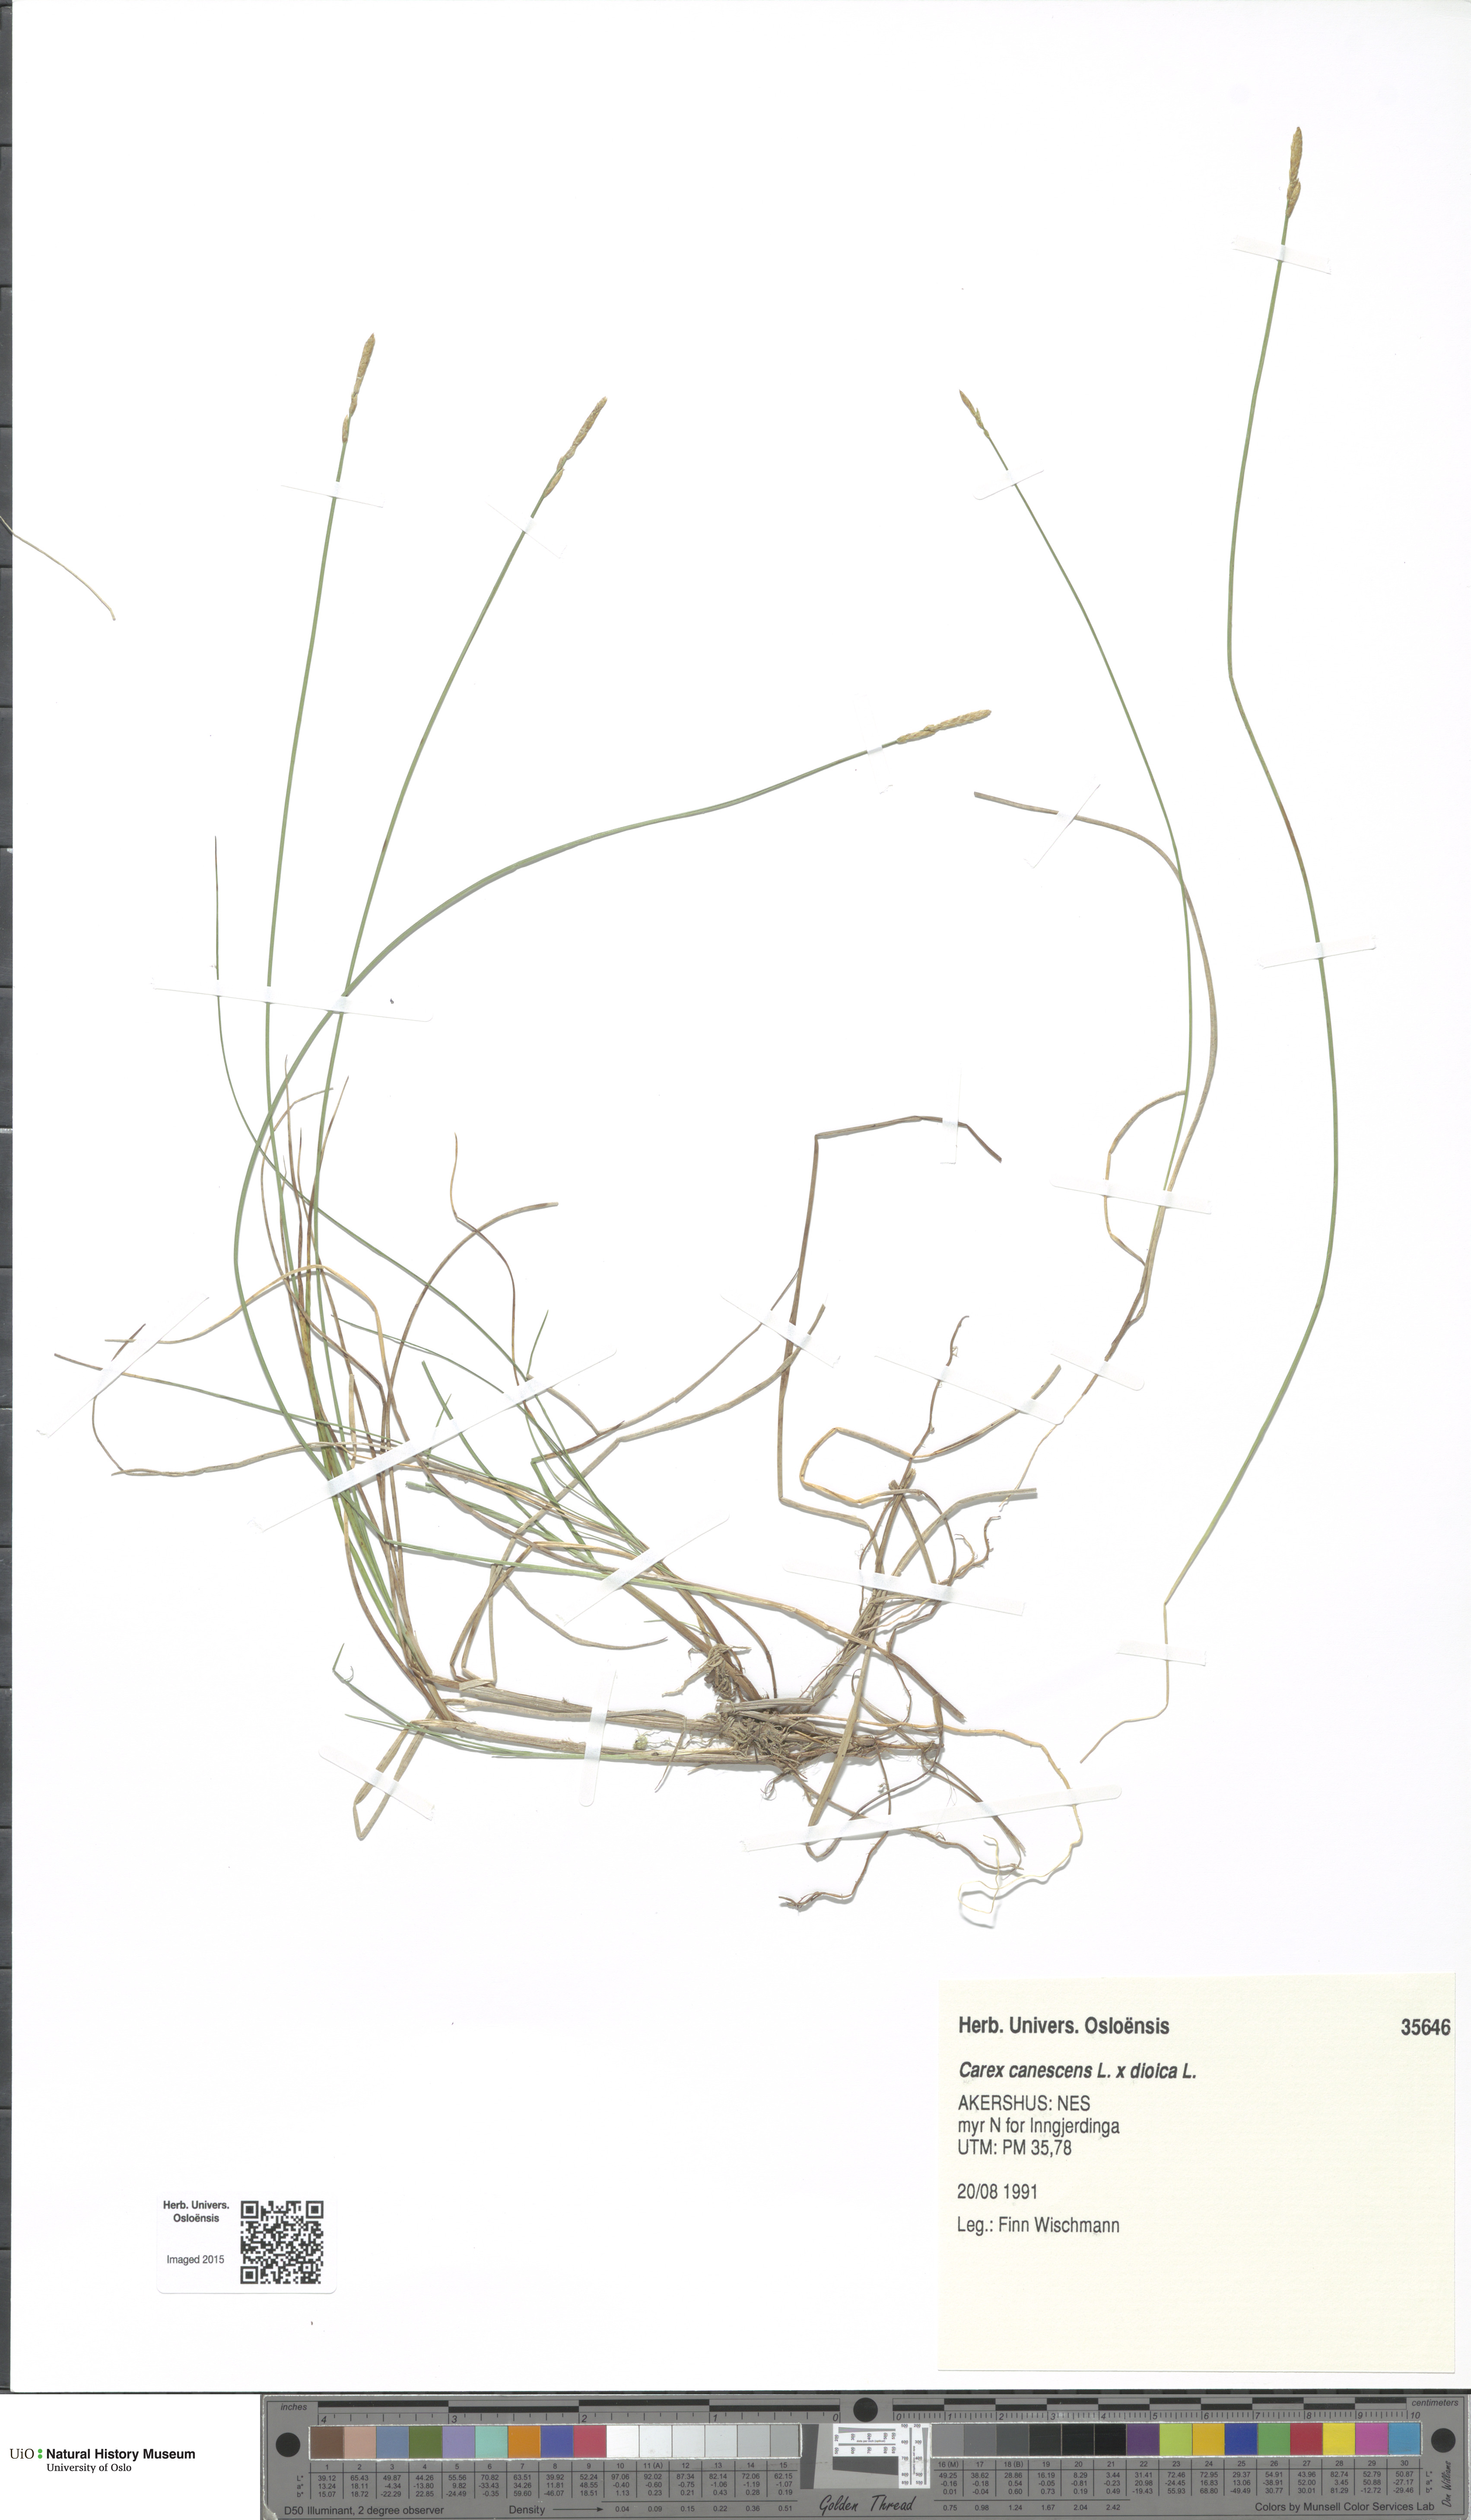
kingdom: Plantae
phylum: Tracheophyta
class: Liliopsida
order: Poales
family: Cyperaceae
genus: Carex
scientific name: Carex
